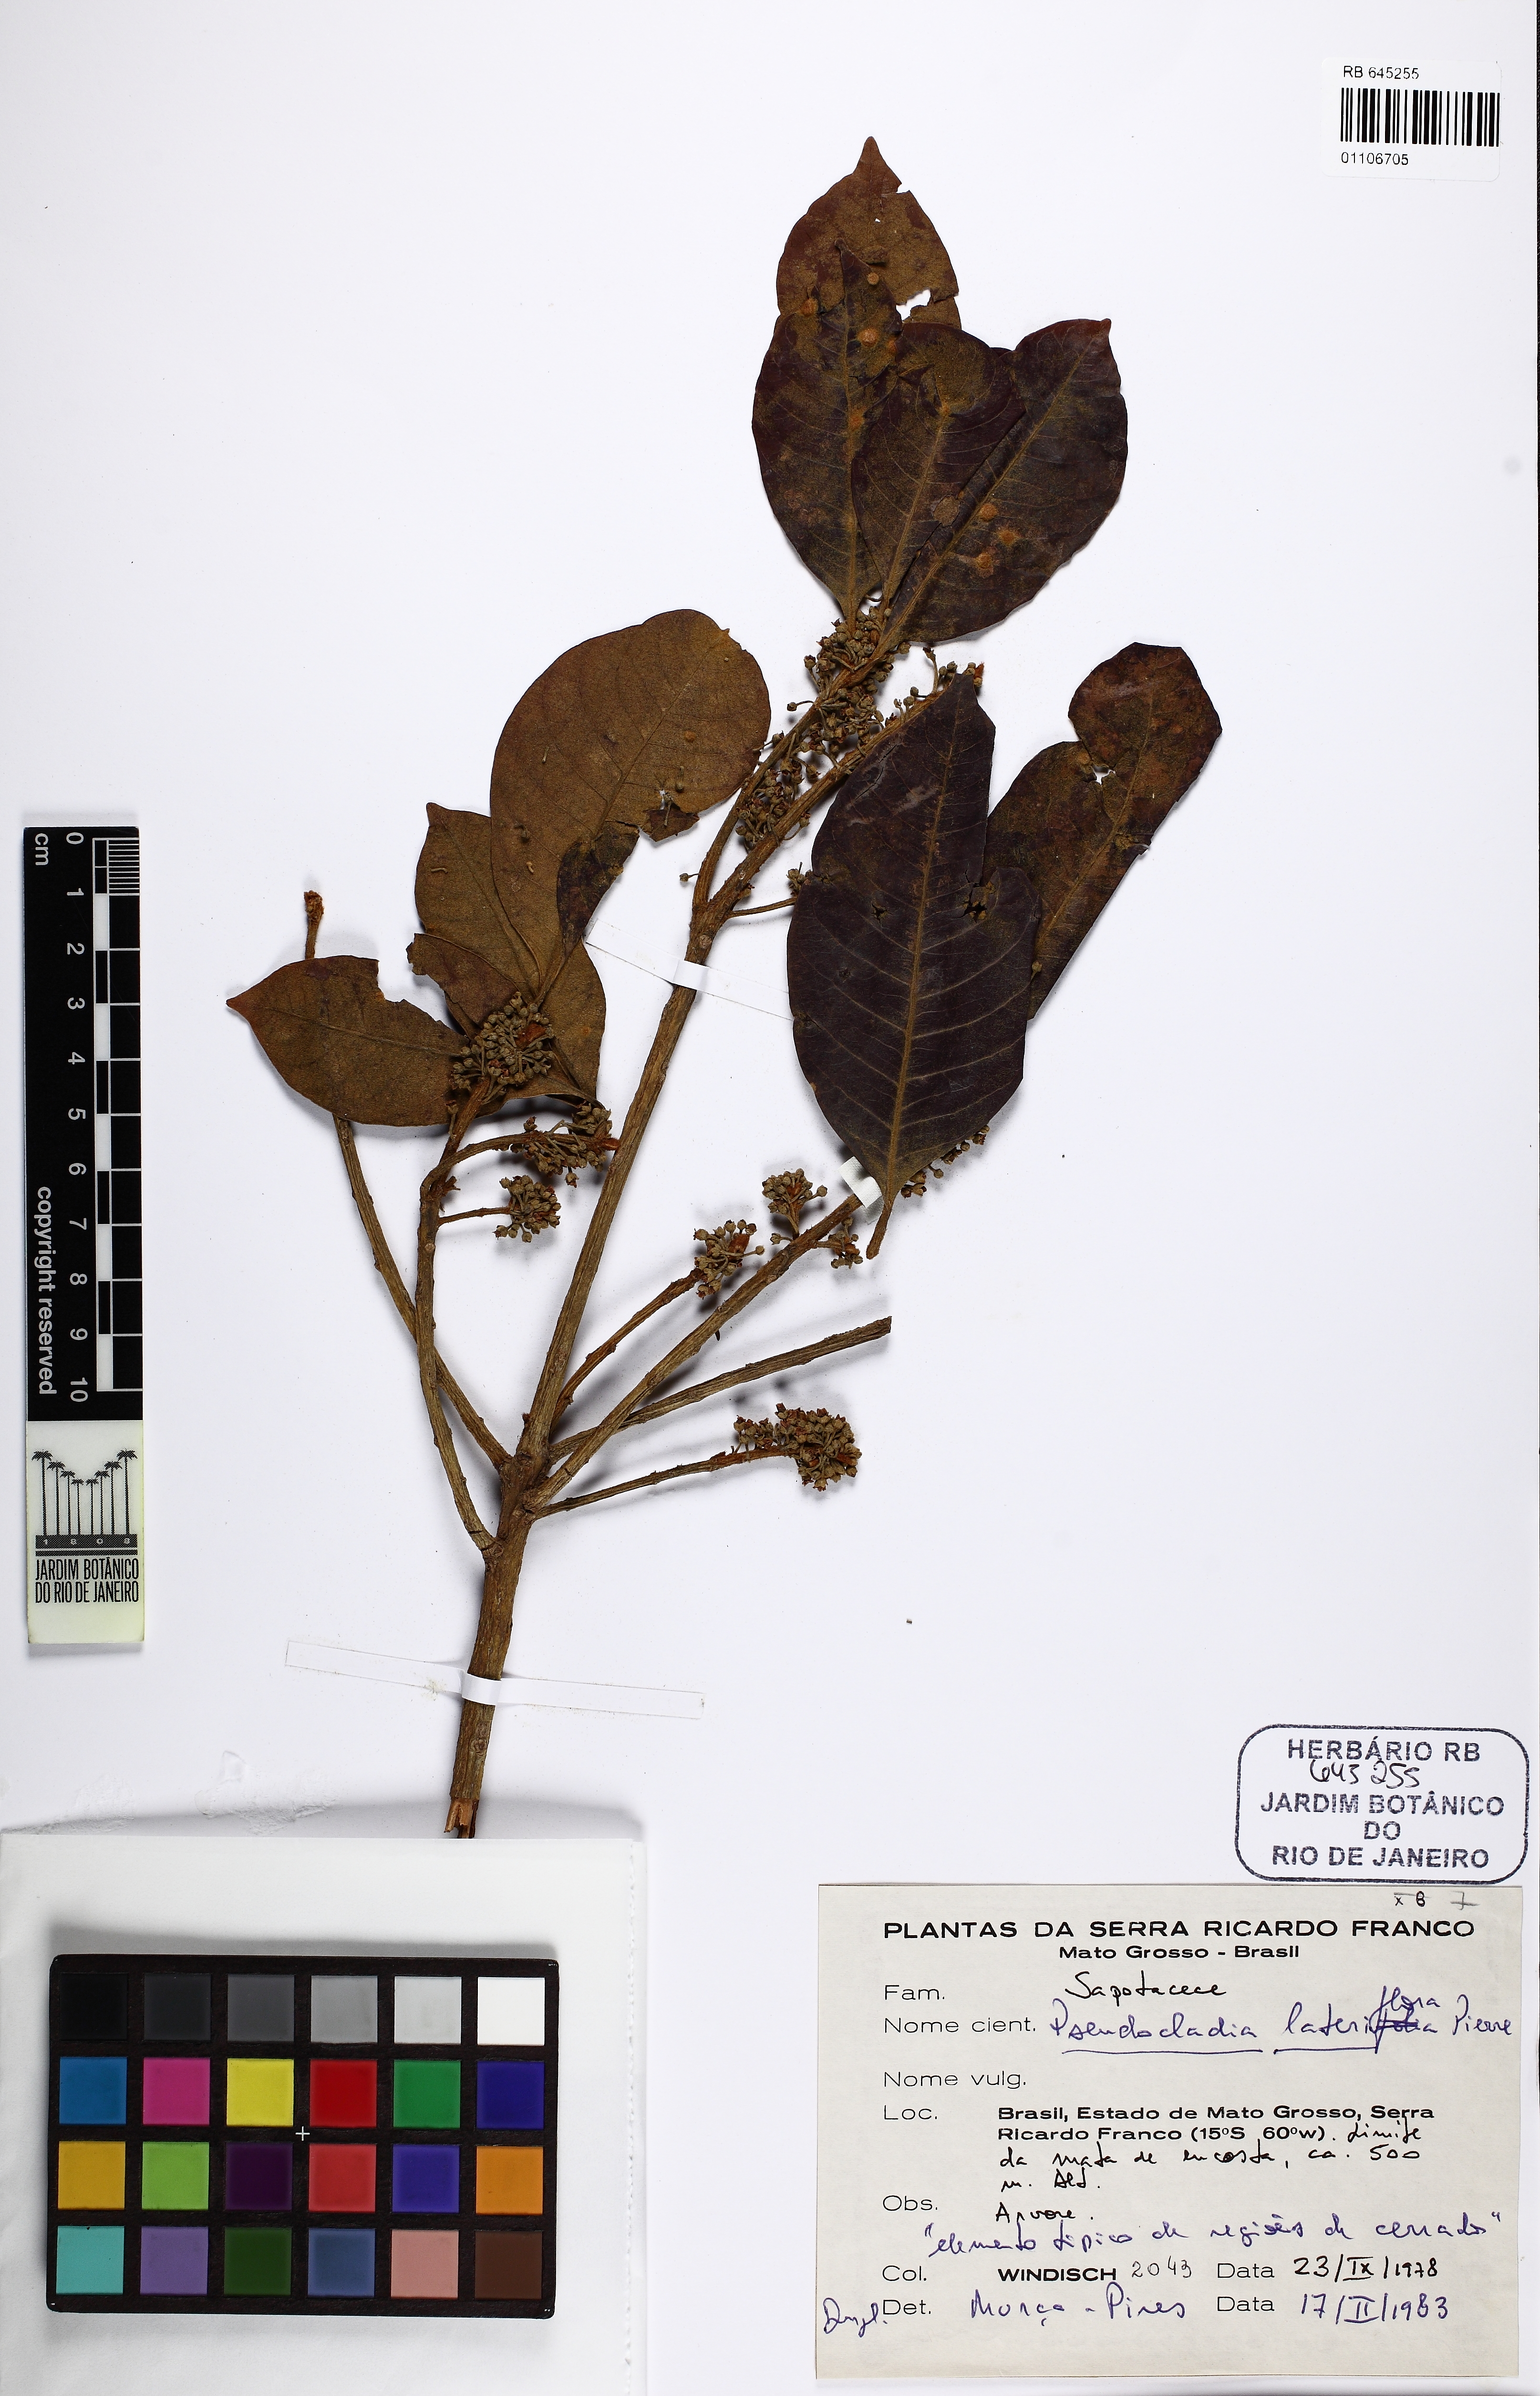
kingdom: Plantae
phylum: Tracheophyta
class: Magnoliopsida
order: Ericales
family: Sapotaceae
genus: Pouteria
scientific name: Pouteria ramiflora
